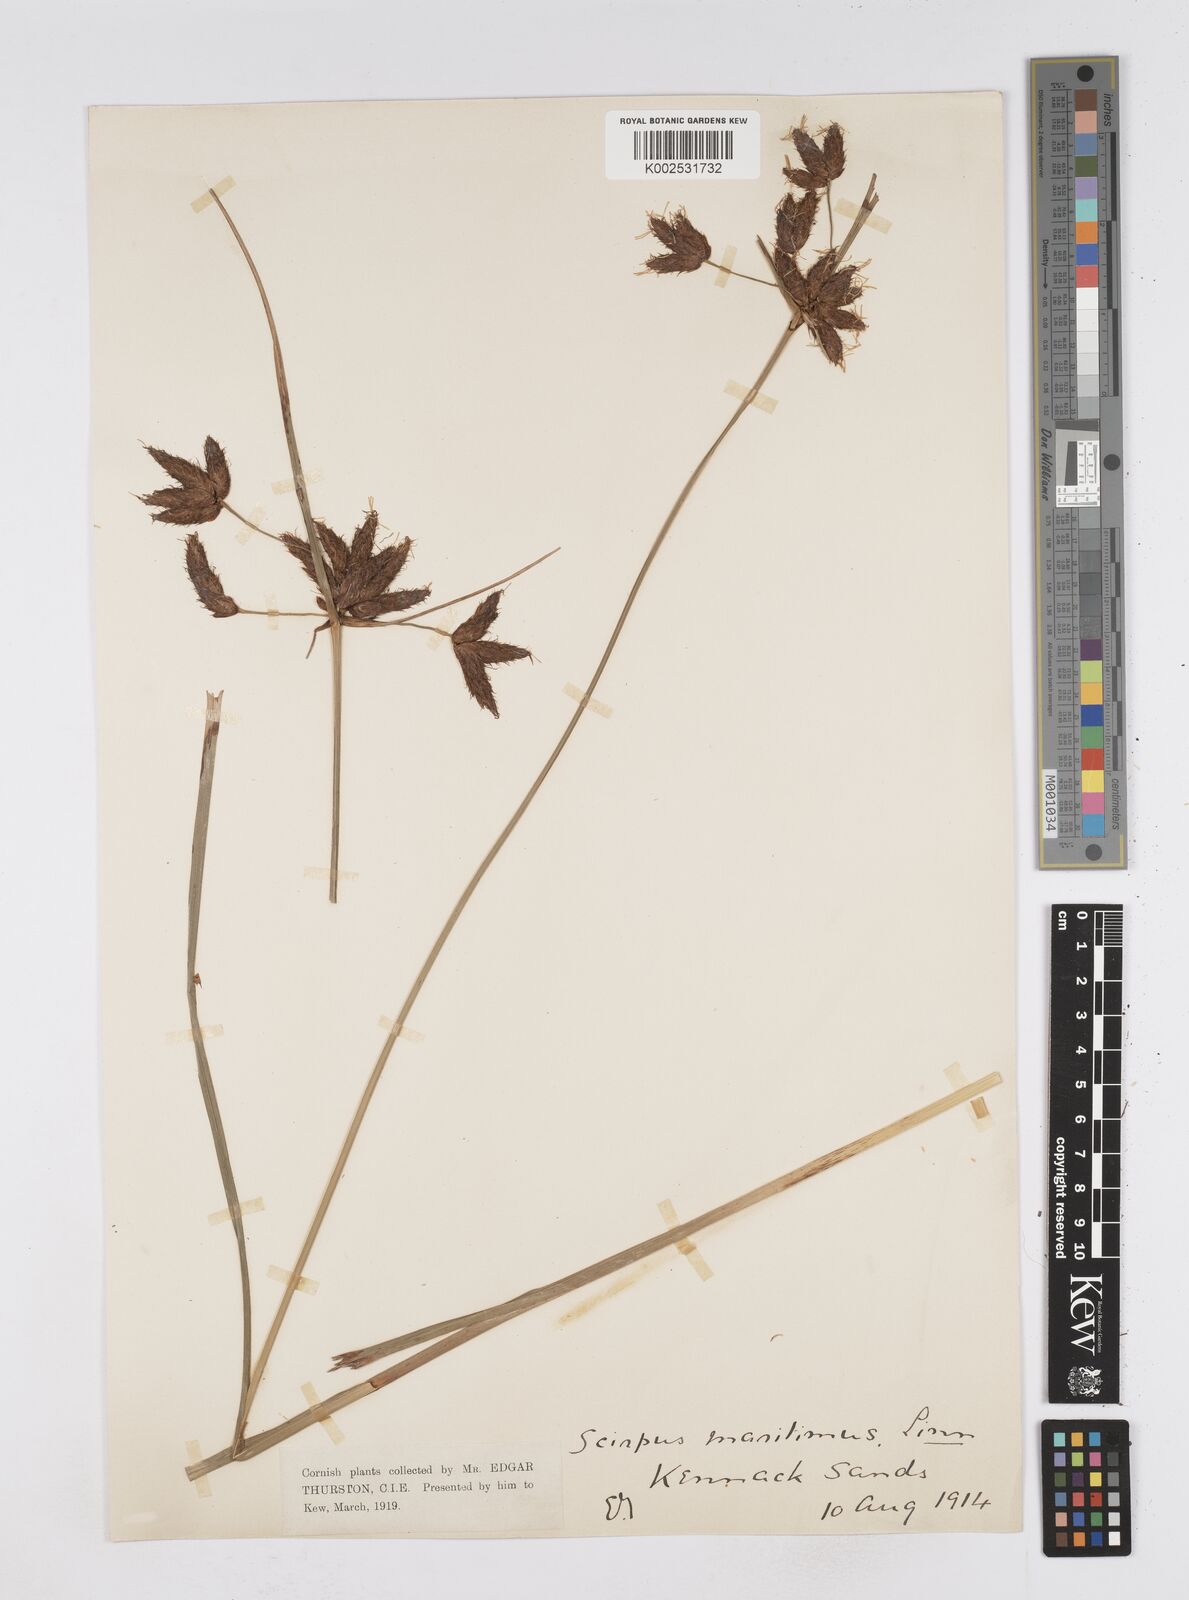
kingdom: Plantae
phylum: Tracheophyta
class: Liliopsida
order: Poales
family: Cyperaceae
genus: Bolboschoenus
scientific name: Bolboschoenus maritimus
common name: Sea club-rush
